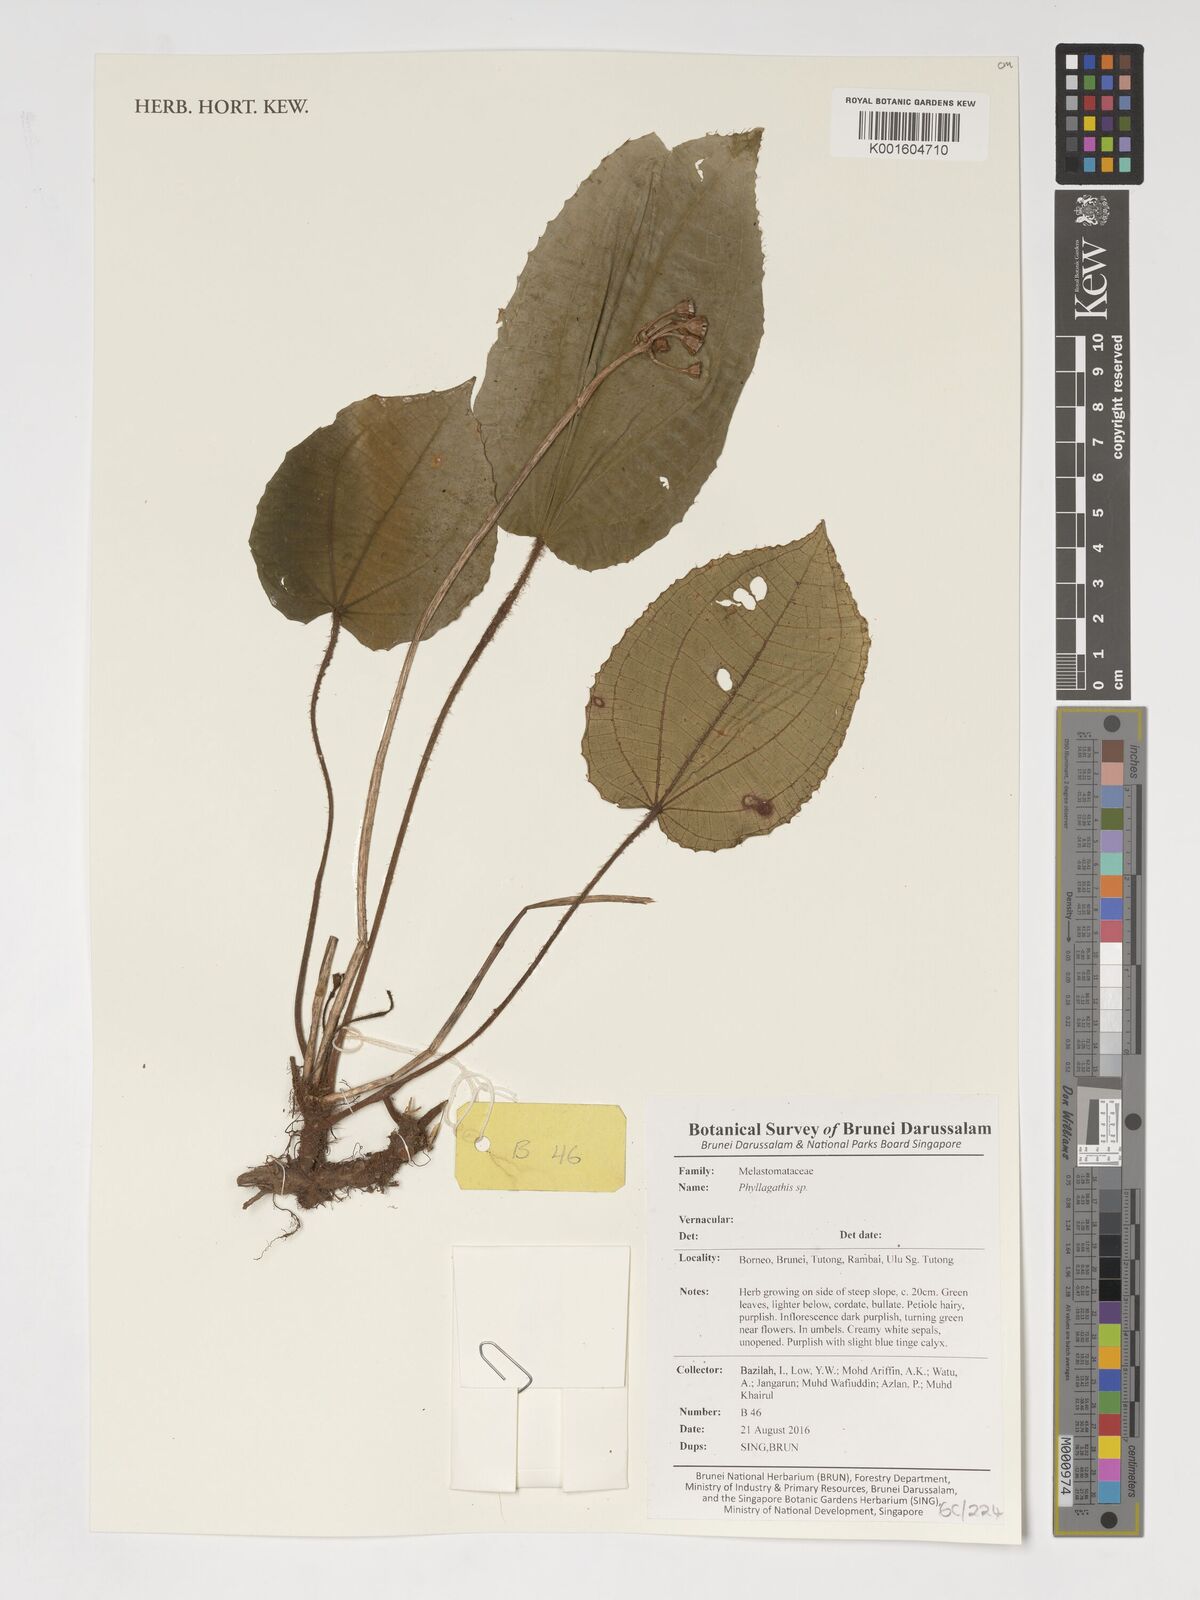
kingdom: Plantae
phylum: Tracheophyta
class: Magnoliopsida
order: Myrtales
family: Melastomataceae
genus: Phyllagathis
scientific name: Phyllagathis
